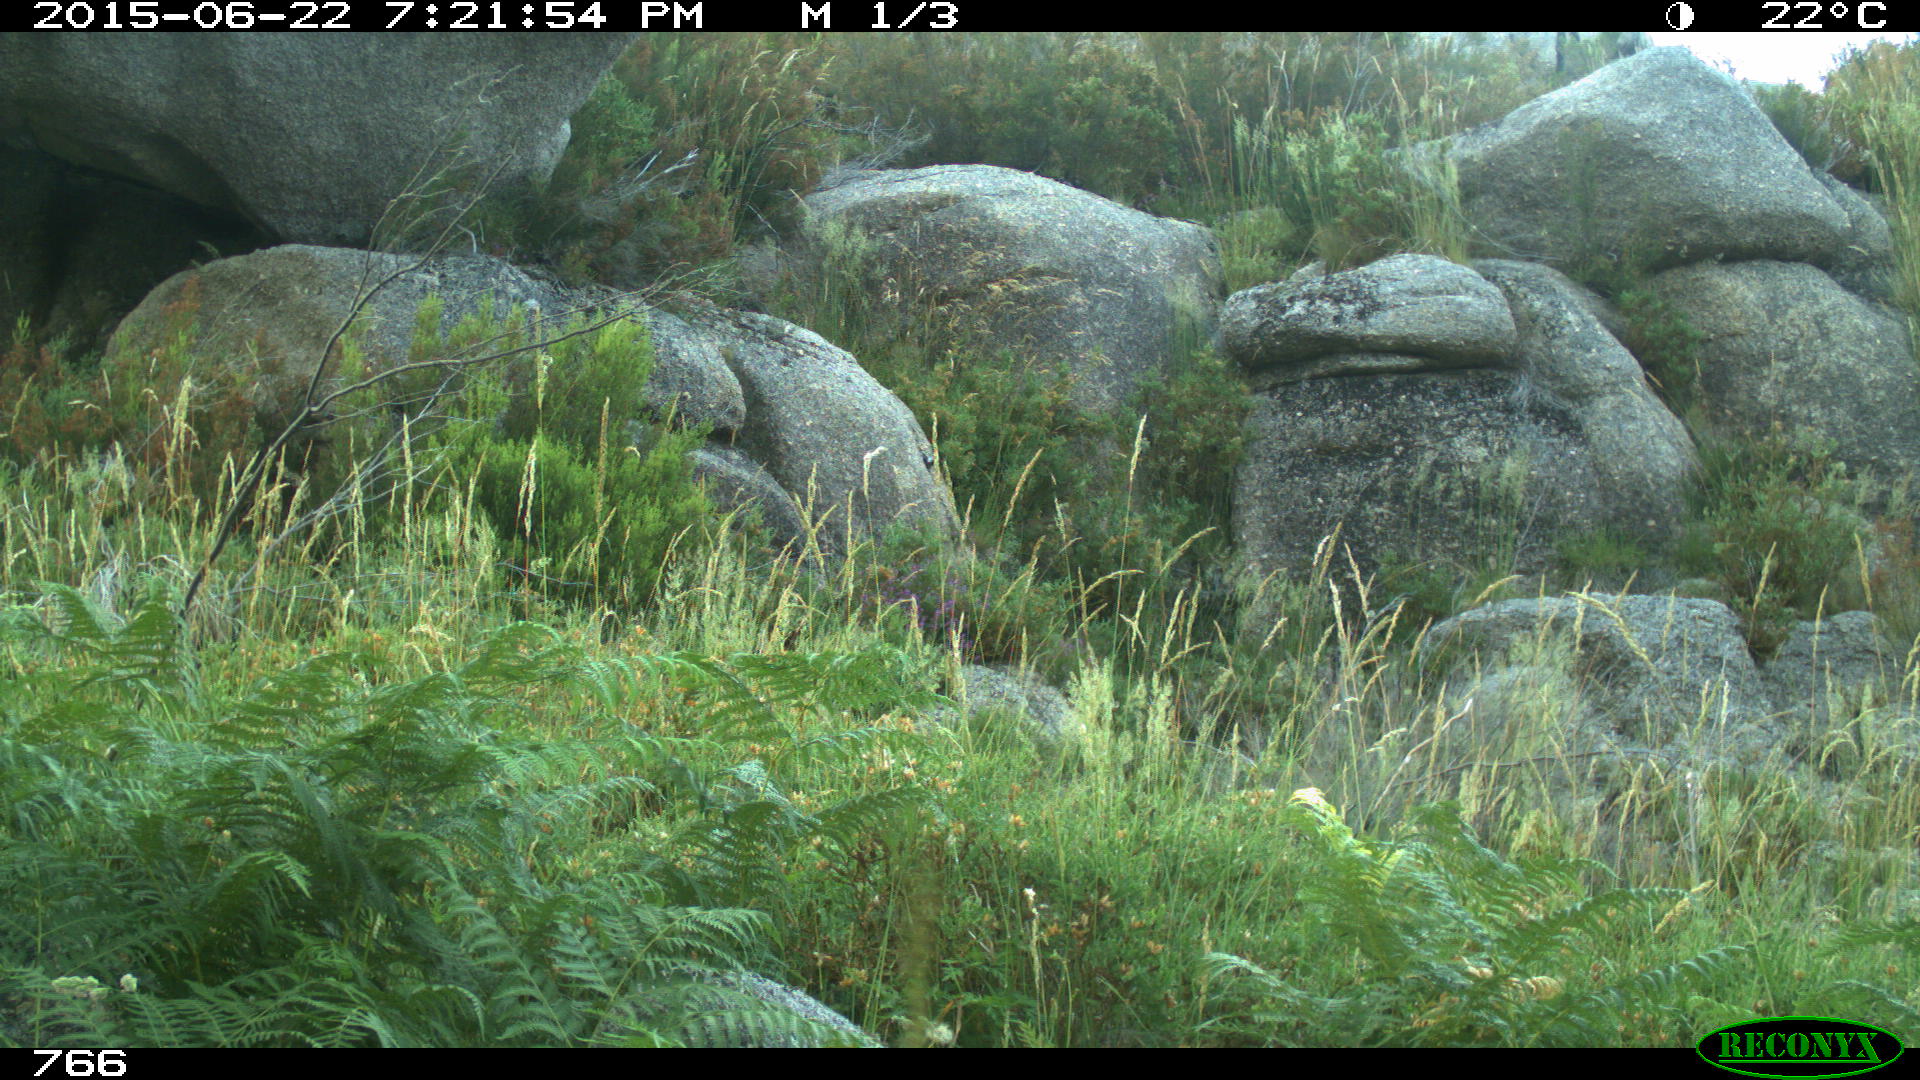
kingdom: Animalia
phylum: Chordata
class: Mammalia
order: Artiodactyla
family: Cervidae
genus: Capreolus
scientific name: Capreolus capreolus
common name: Western roe deer
